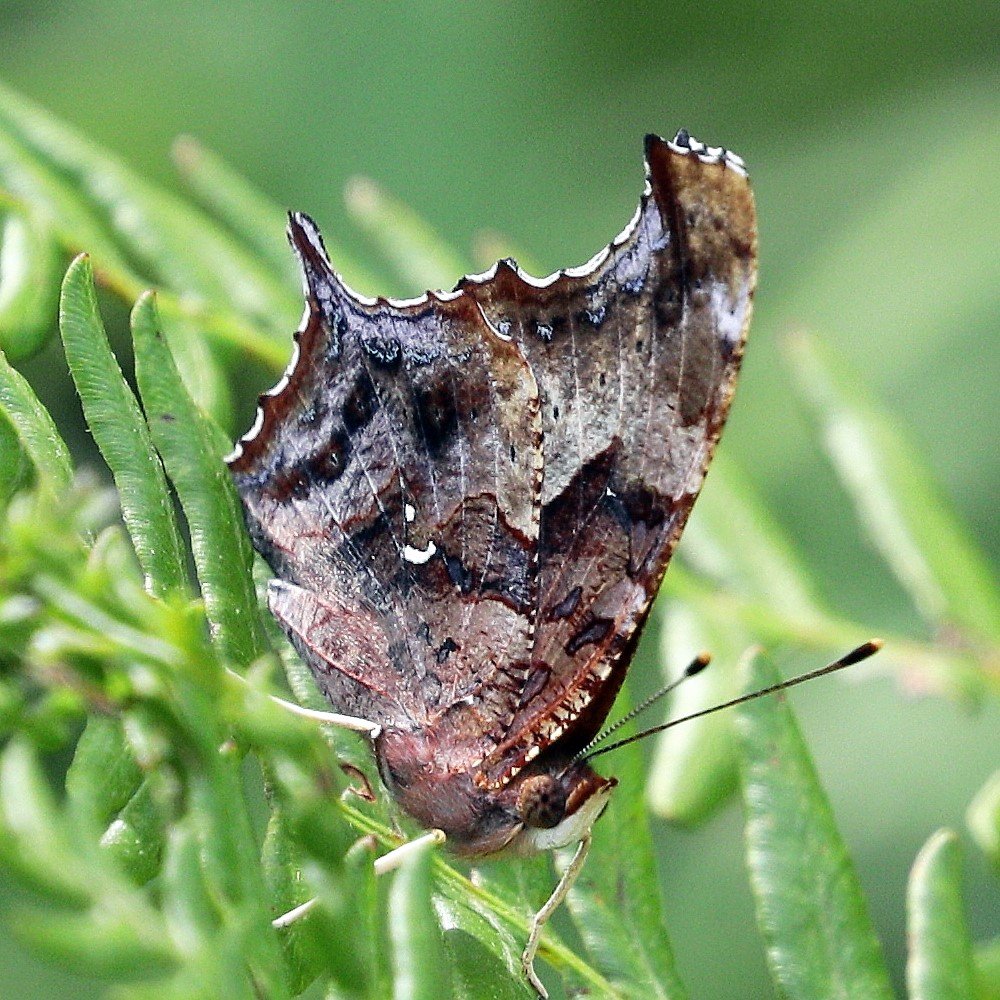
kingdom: Animalia
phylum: Arthropoda
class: Insecta
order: Lepidoptera
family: Nymphalidae
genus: Polygonia
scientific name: Polygonia interrogationis
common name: Question Mark
